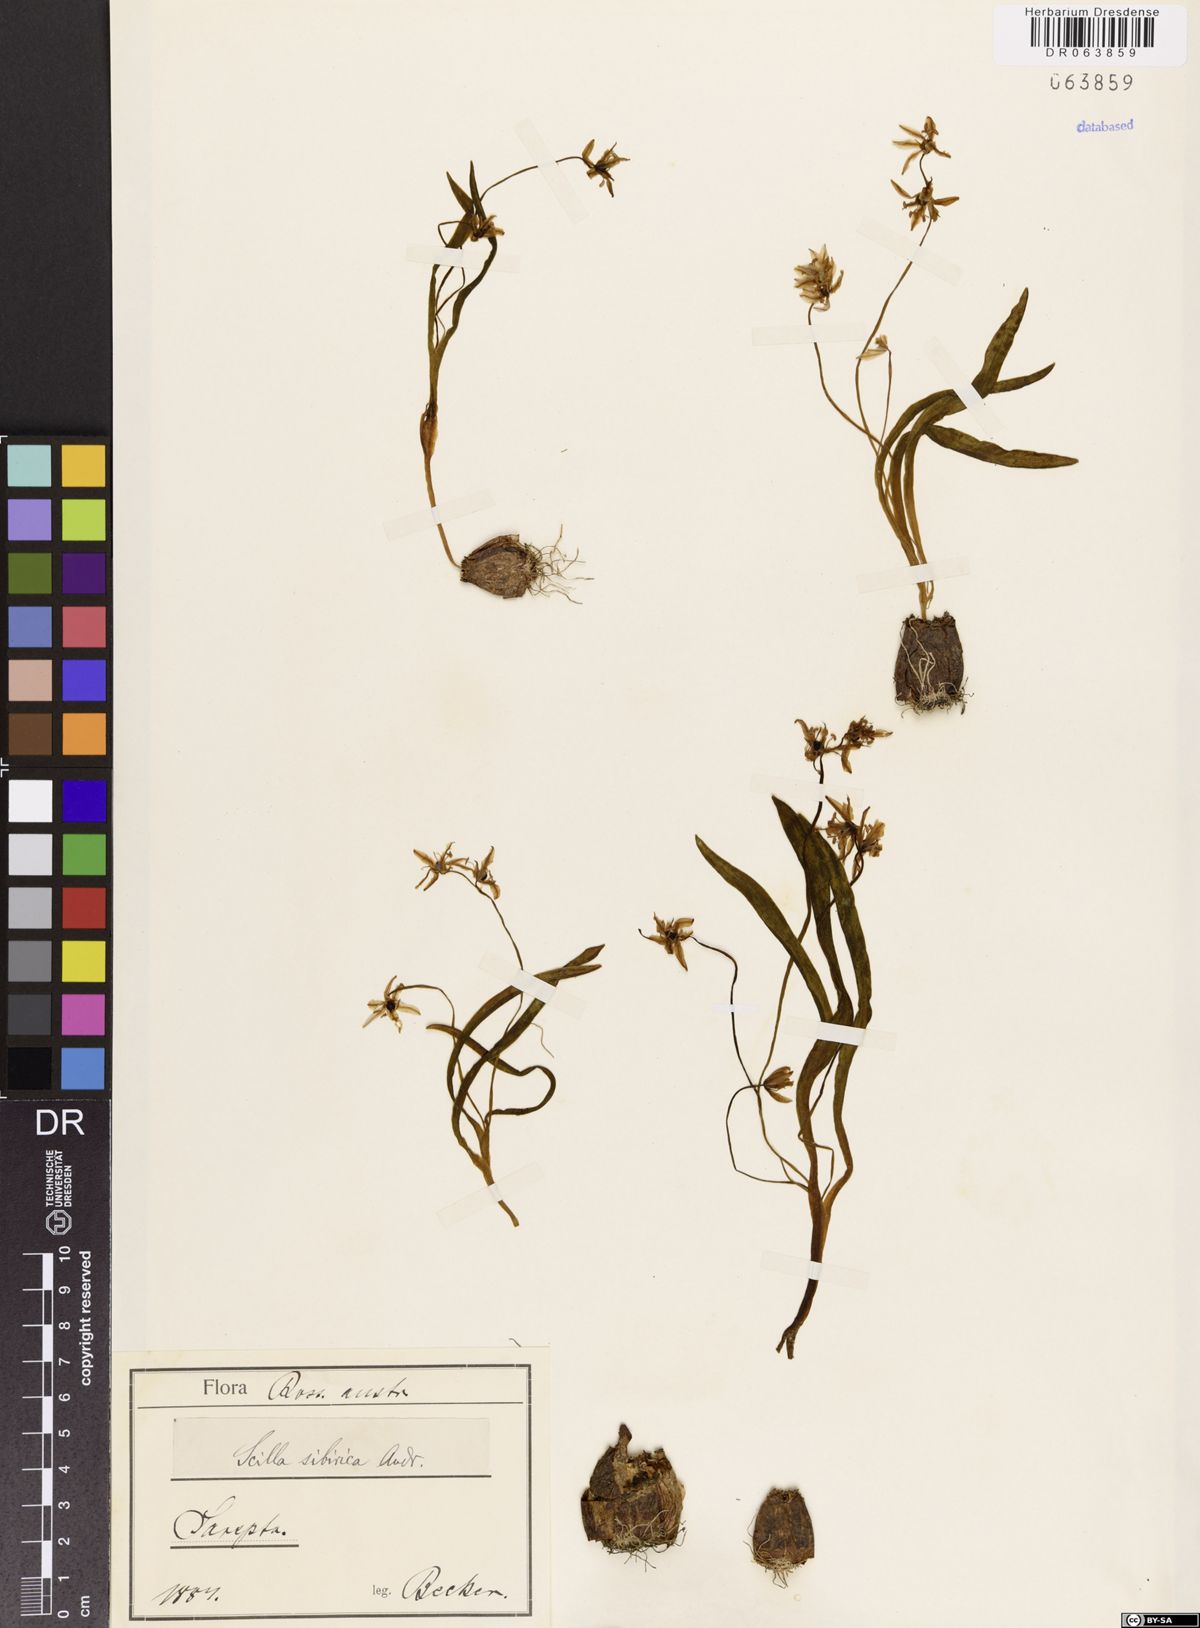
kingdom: Plantae
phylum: Tracheophyta
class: Liliopsida
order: Asparagales
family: Asparagaceae
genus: Scilla
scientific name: Scilla siberica
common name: Siberian squill
